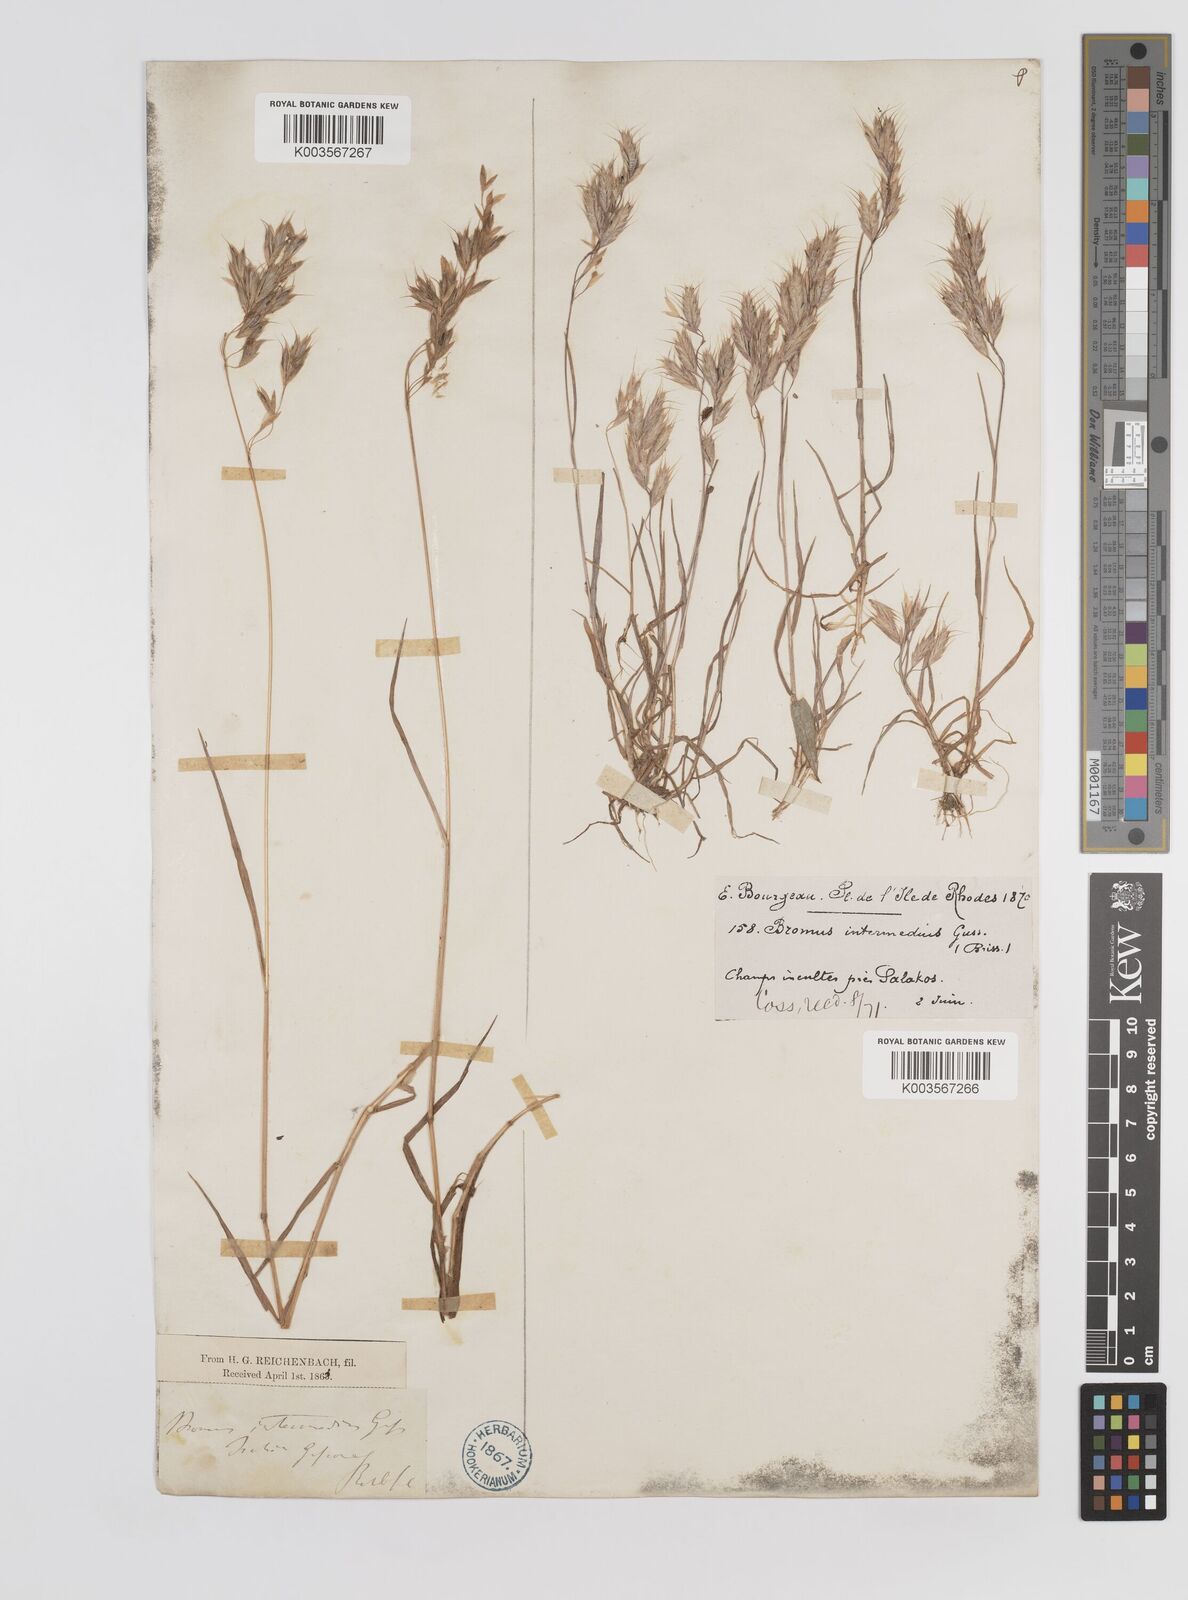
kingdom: Plantae
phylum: Tracheophyta
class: Liliopsida
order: Poales
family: Poaceae
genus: Bromus
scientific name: Bromus intermedius
